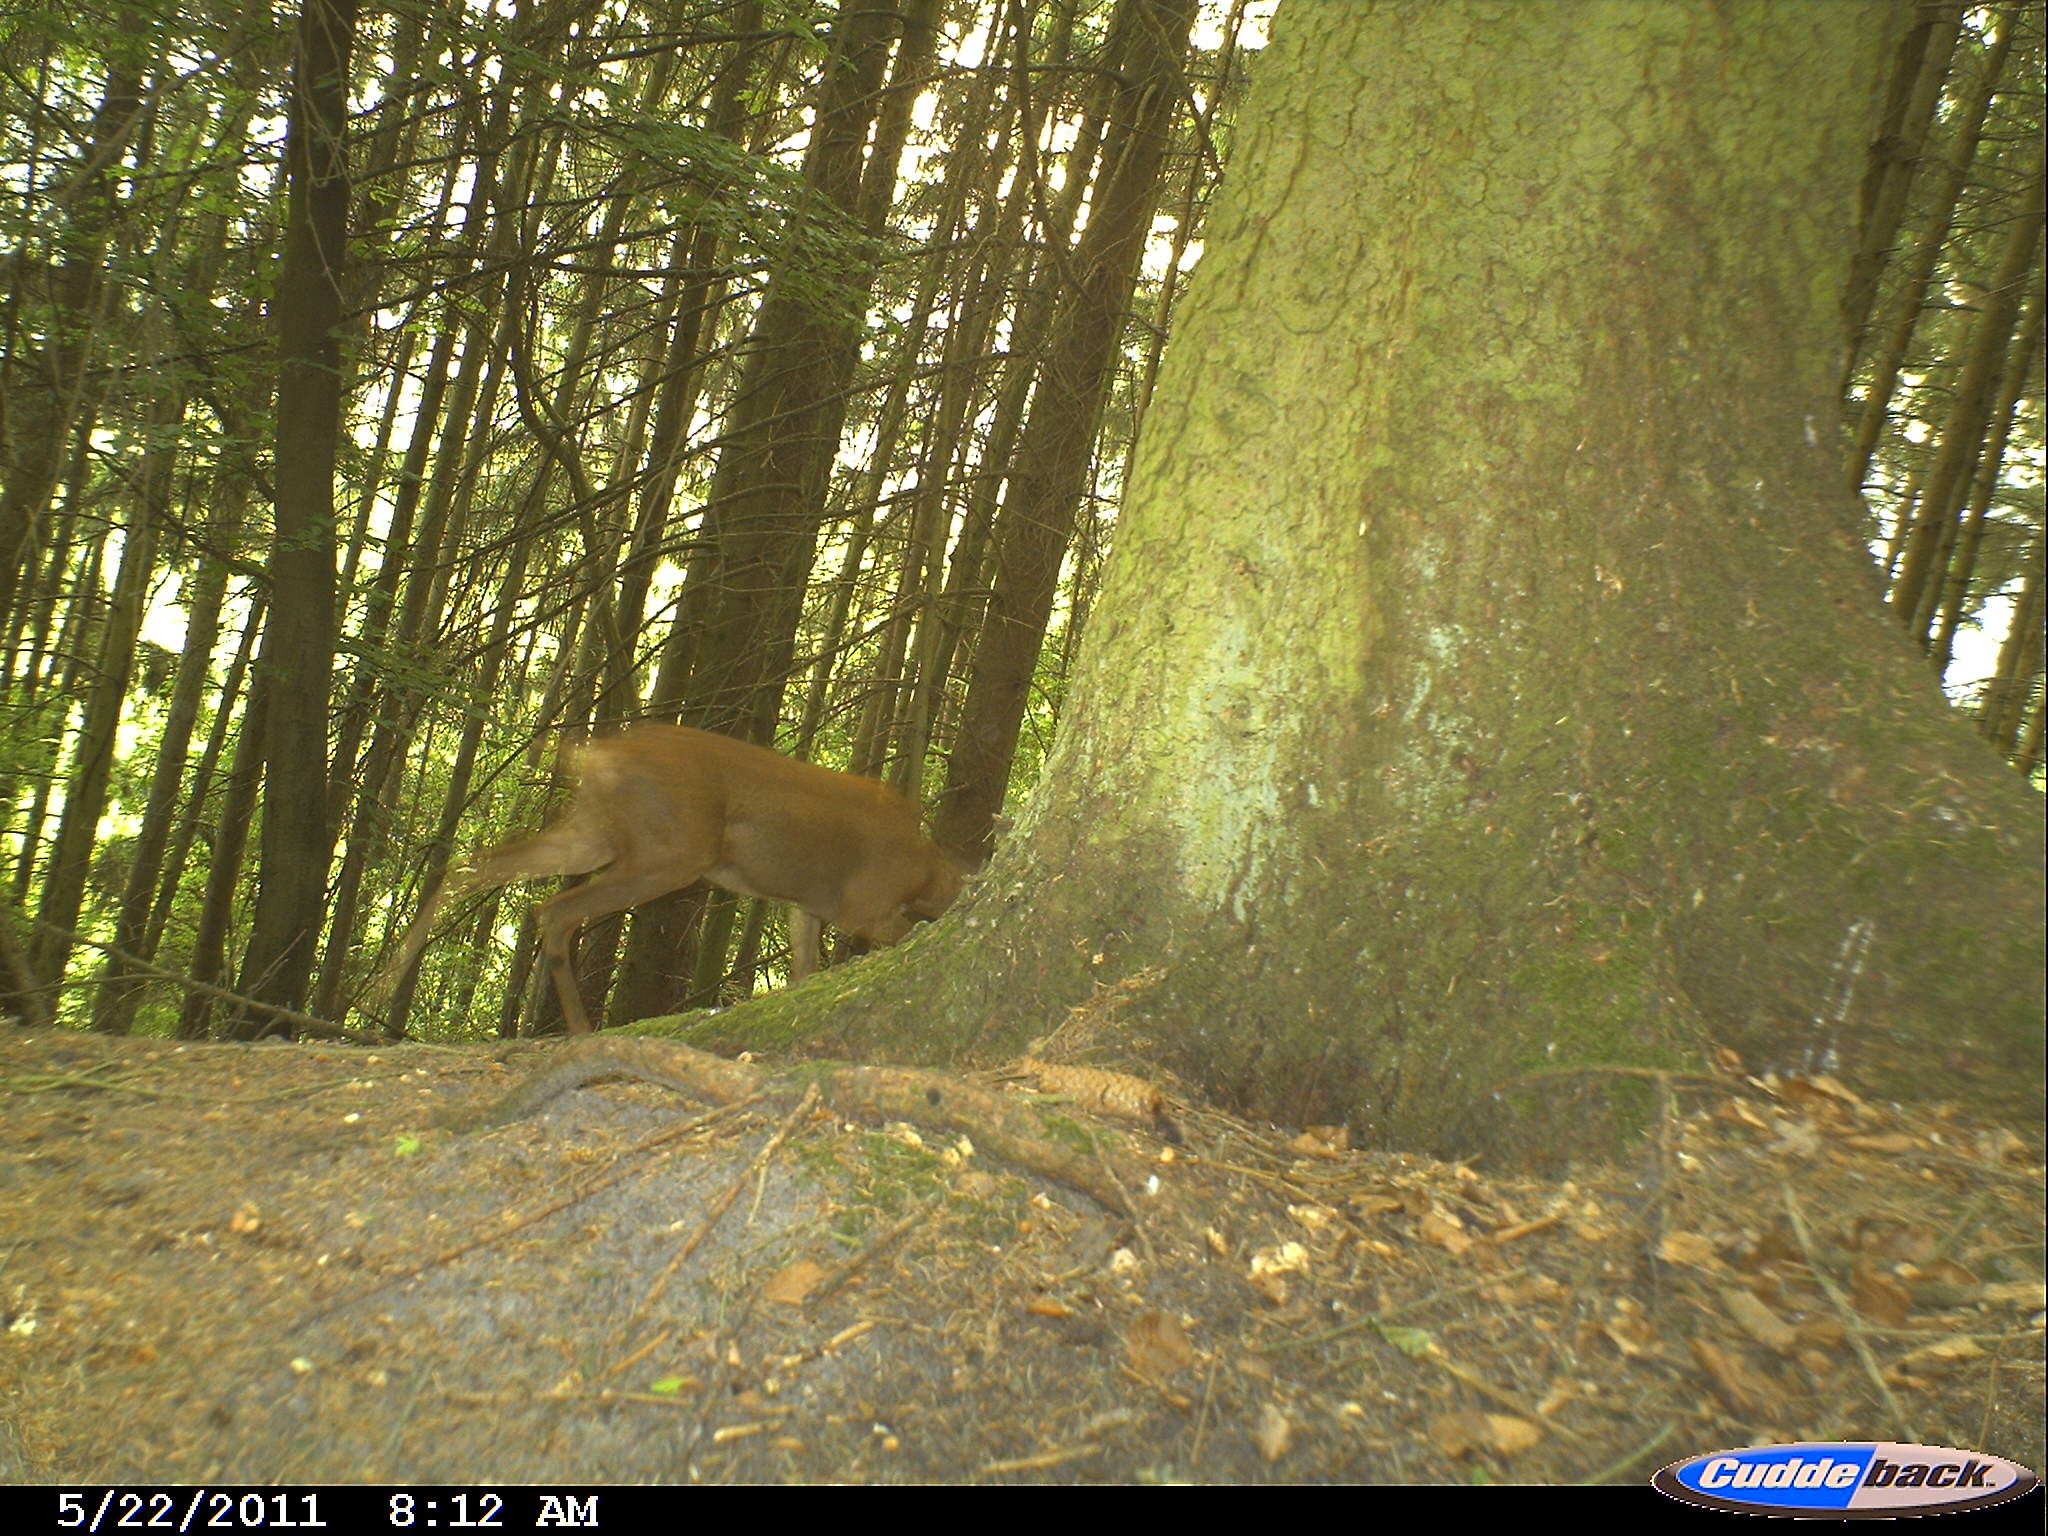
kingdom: Animalia
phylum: Chordata
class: Mammalia
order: Artiodactyla
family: Cervidae
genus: Capreolus
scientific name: Capreolus capreolus
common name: Western roe deer
